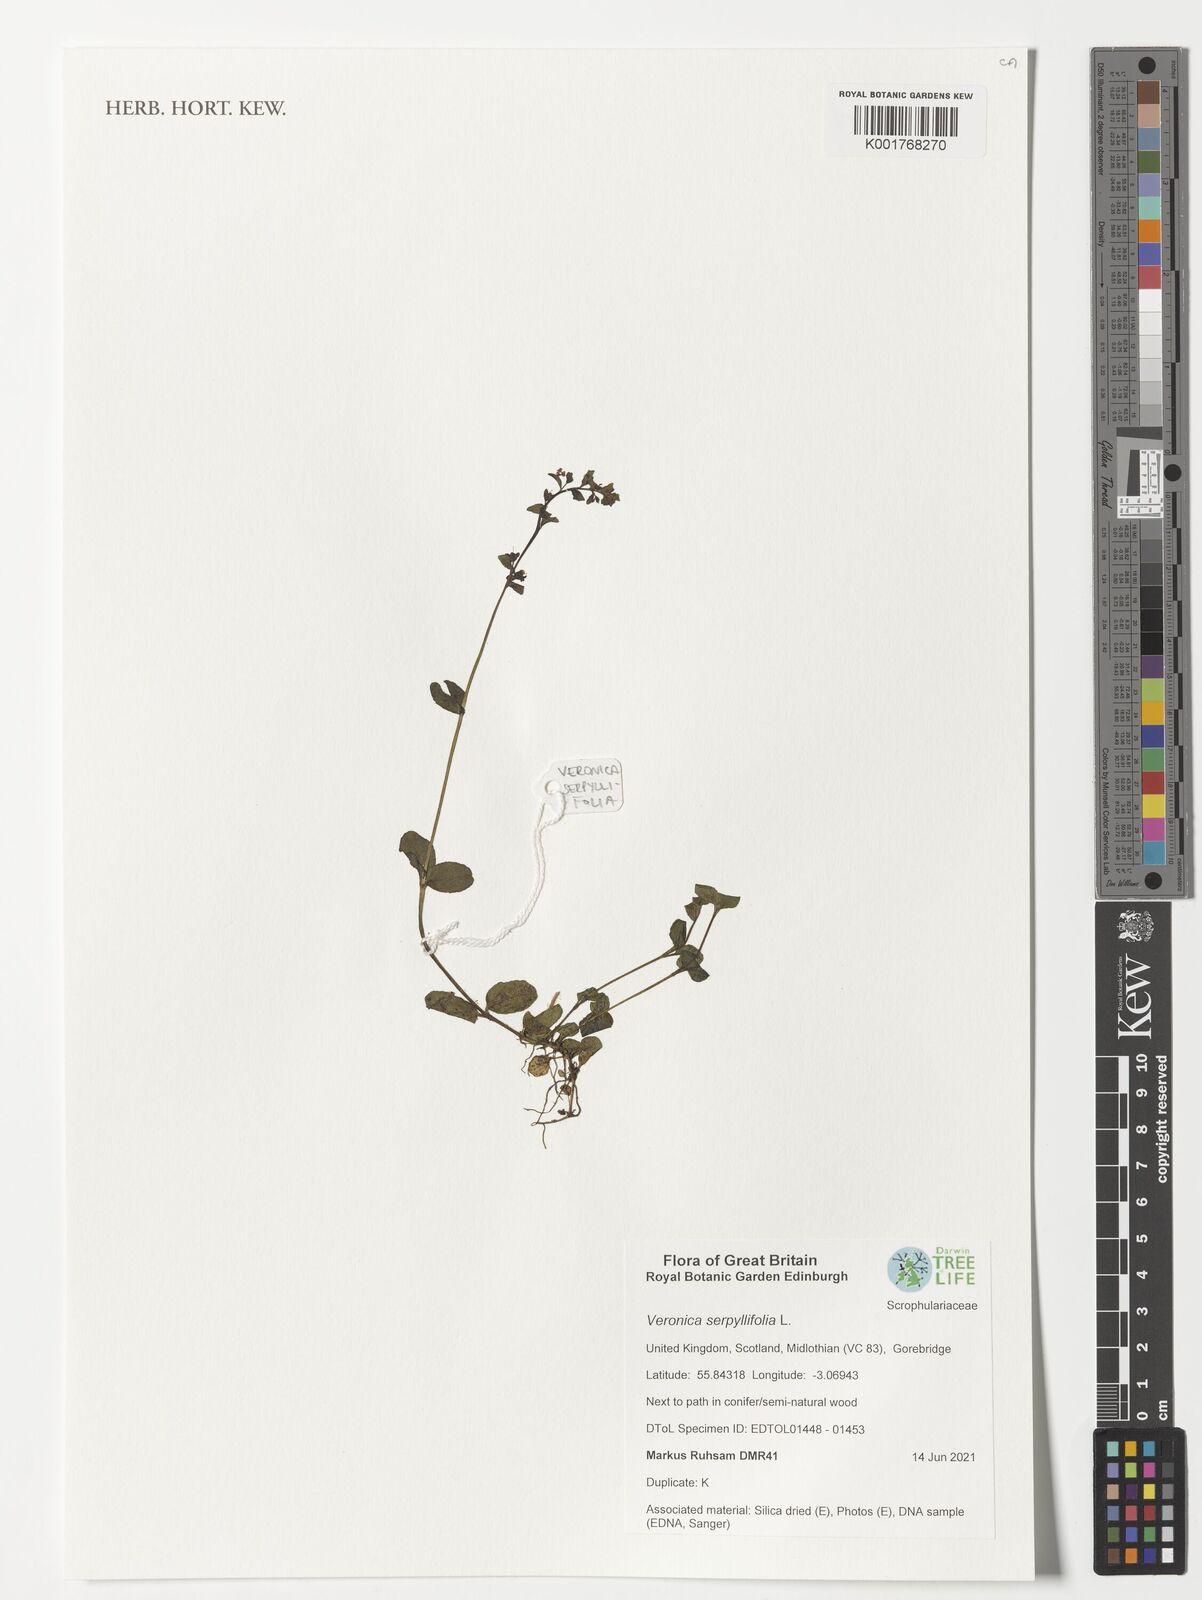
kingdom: Plantae
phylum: Tracheophyta
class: Magnoliopsida
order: Lamiales
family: Plantaginaceae
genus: Veronica
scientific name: Veronica serpyllifolia
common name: Thyme-leaved speedwell
